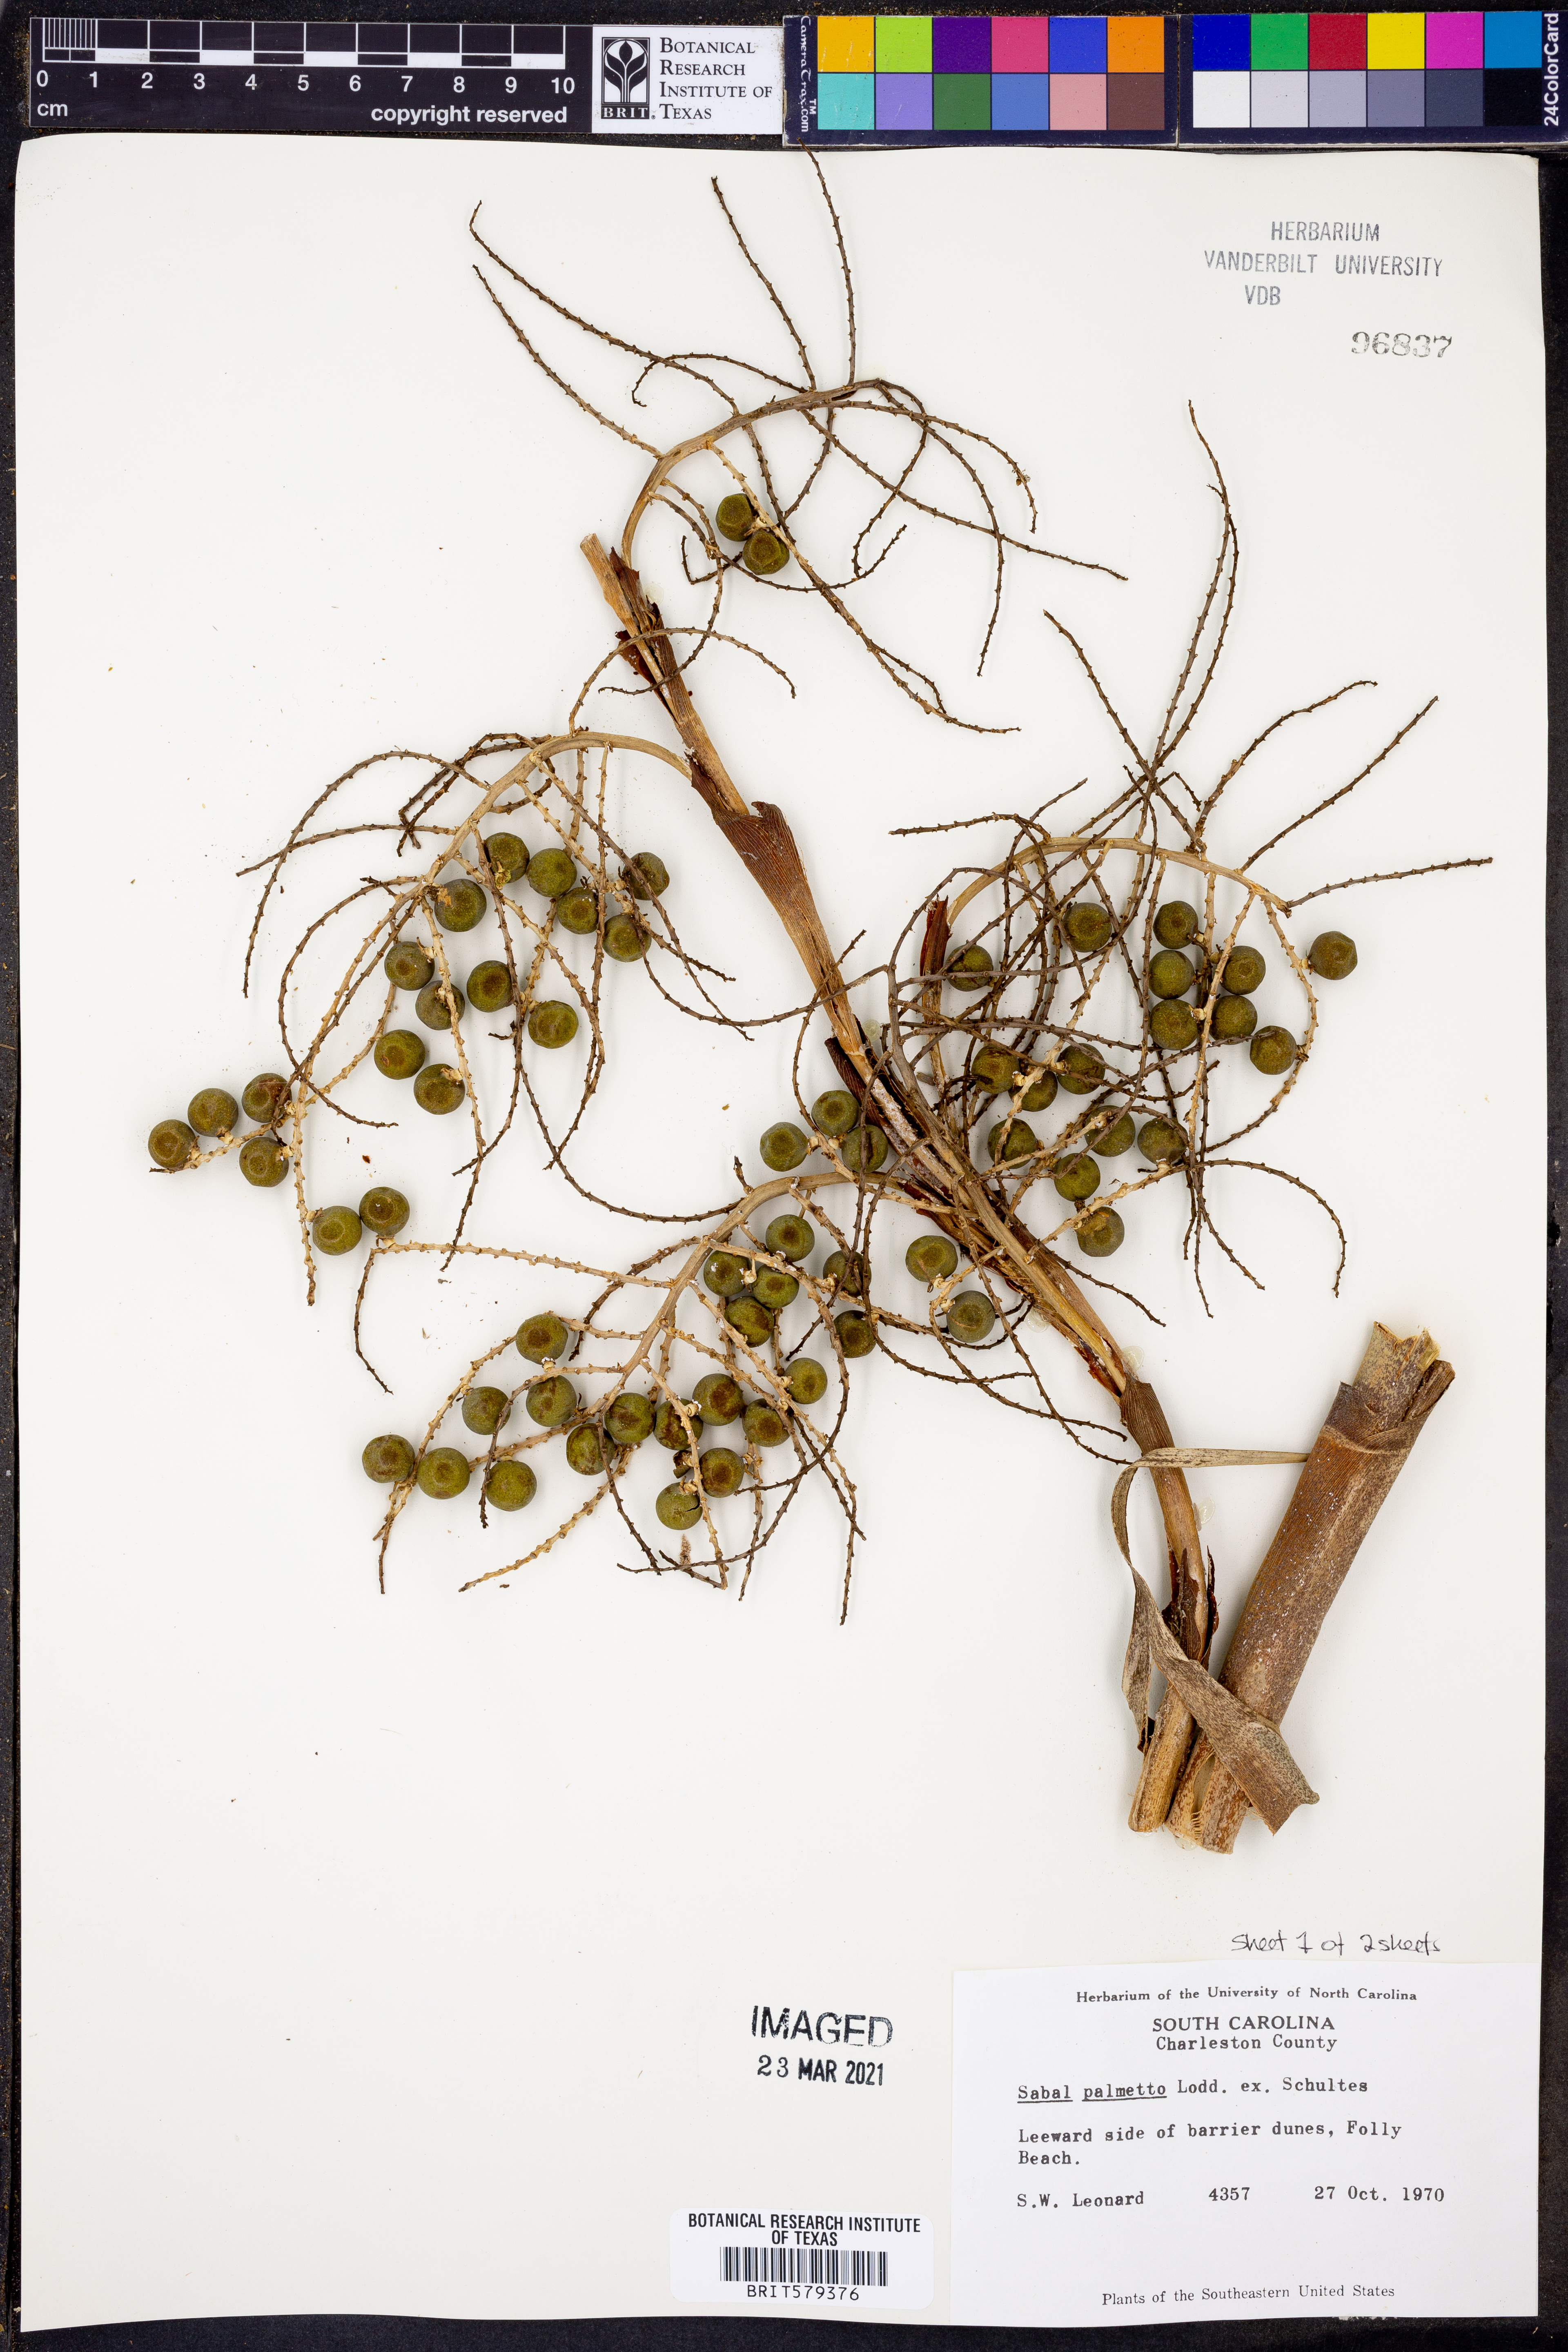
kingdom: Plantae
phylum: Tracheophyta
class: Liliopsida
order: Arecales
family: Arecaceae
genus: Sabal
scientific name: Sabal palmetto
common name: Blue palmetto
